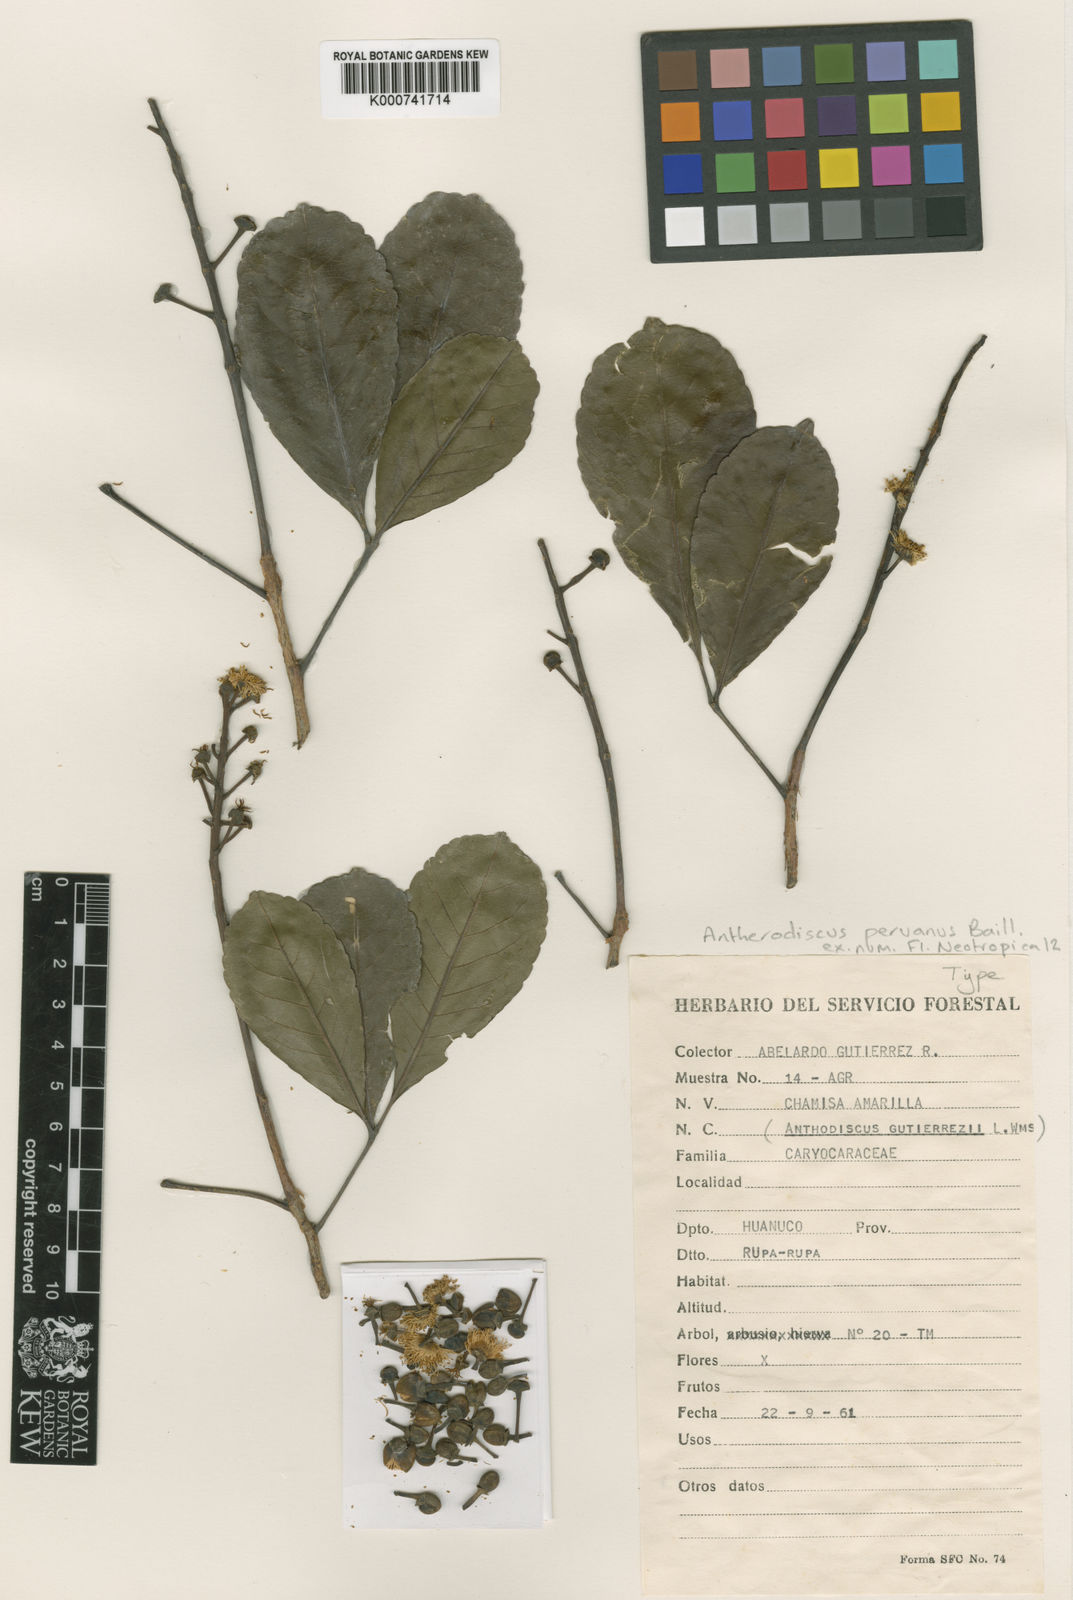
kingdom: Plantae
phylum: Tracheophyta
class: Magnoliopsida
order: Malpighiales
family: Caryocaraceae
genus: Anthodiscus
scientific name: Anthodiscus peruanus
